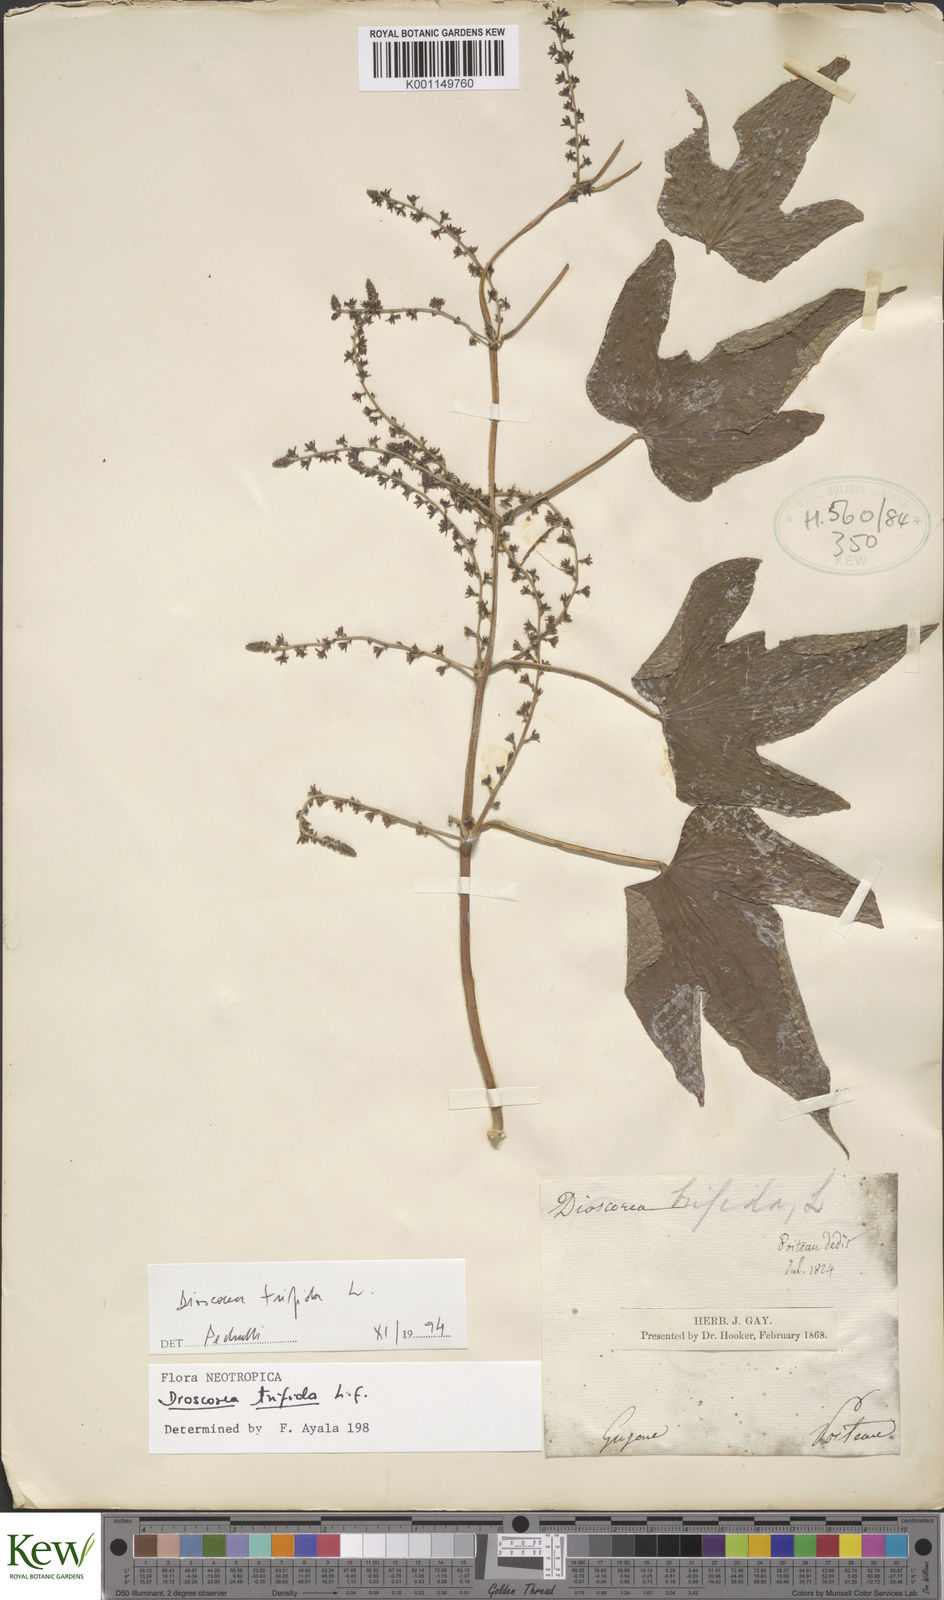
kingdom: Plantae
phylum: Tracheophyta
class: Liliopsida
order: Dioscoreales
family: Dioscoreaceae
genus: Dioscorea
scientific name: Dioscorea trifida
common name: Cush-cush
